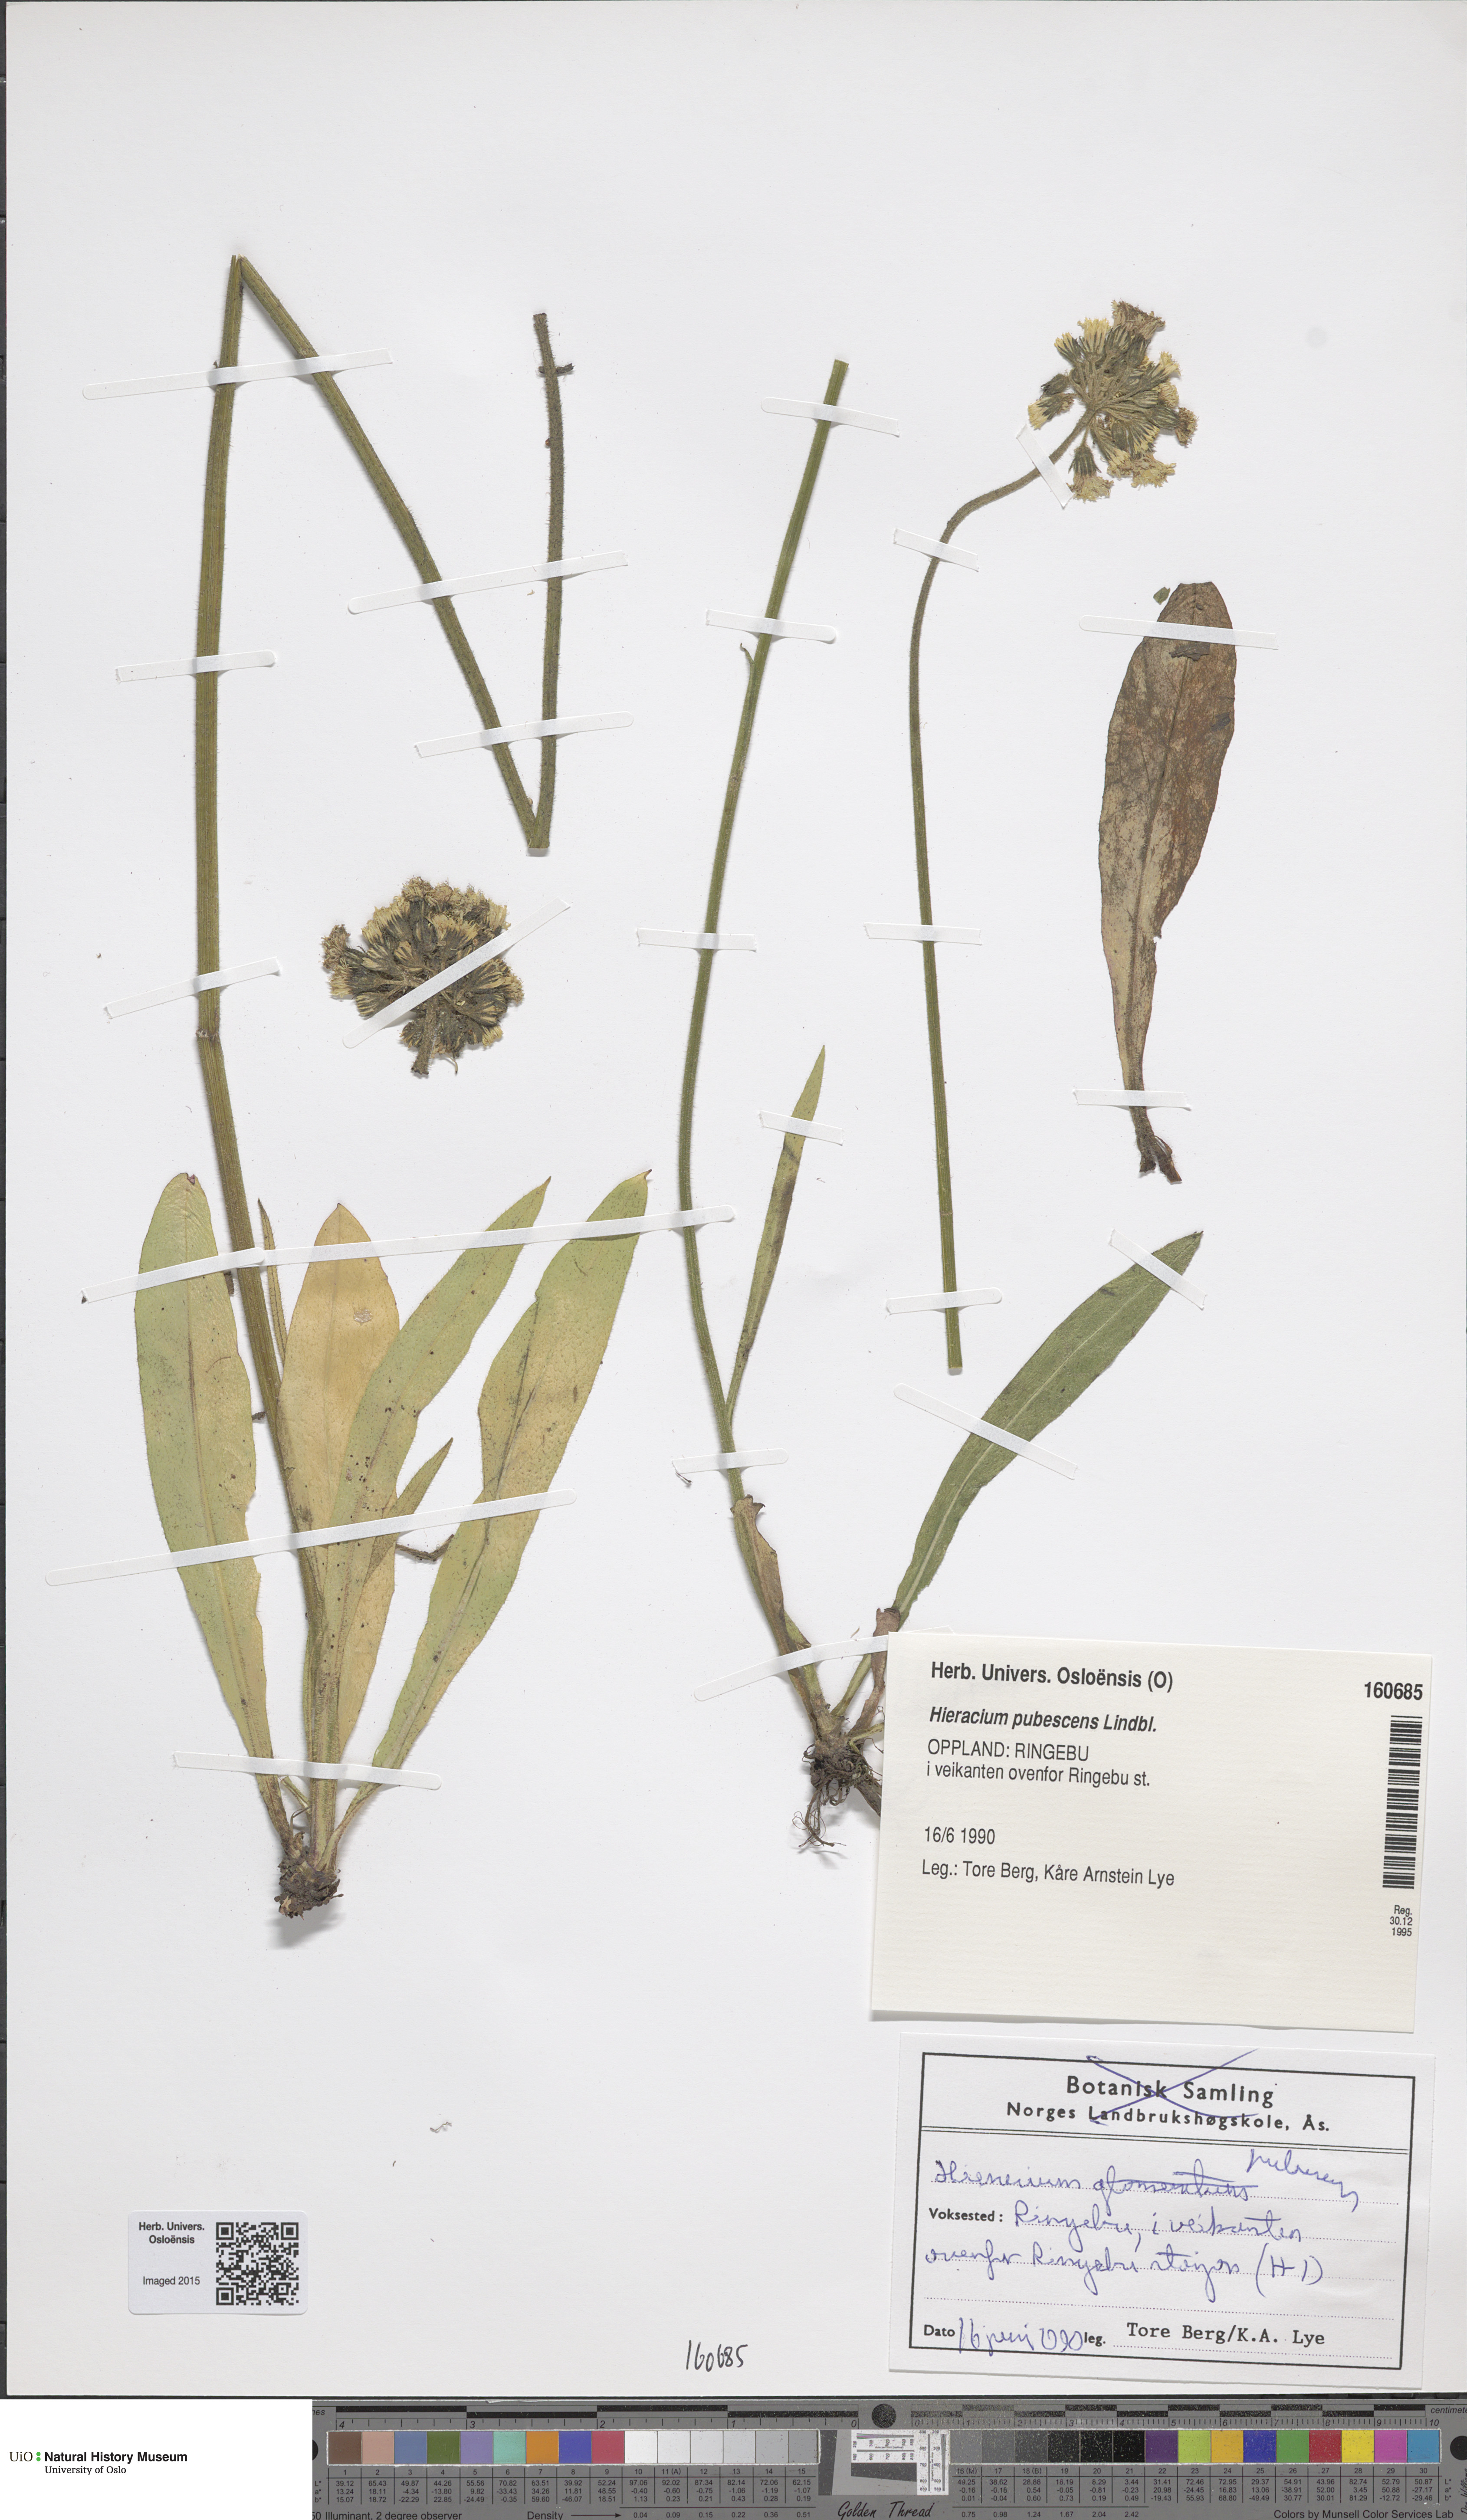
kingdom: Plantae
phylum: Tracheophyta
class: Magnoliopsida
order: Asterales
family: Asteraceae
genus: Pilosella
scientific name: Pilosella cymosa
